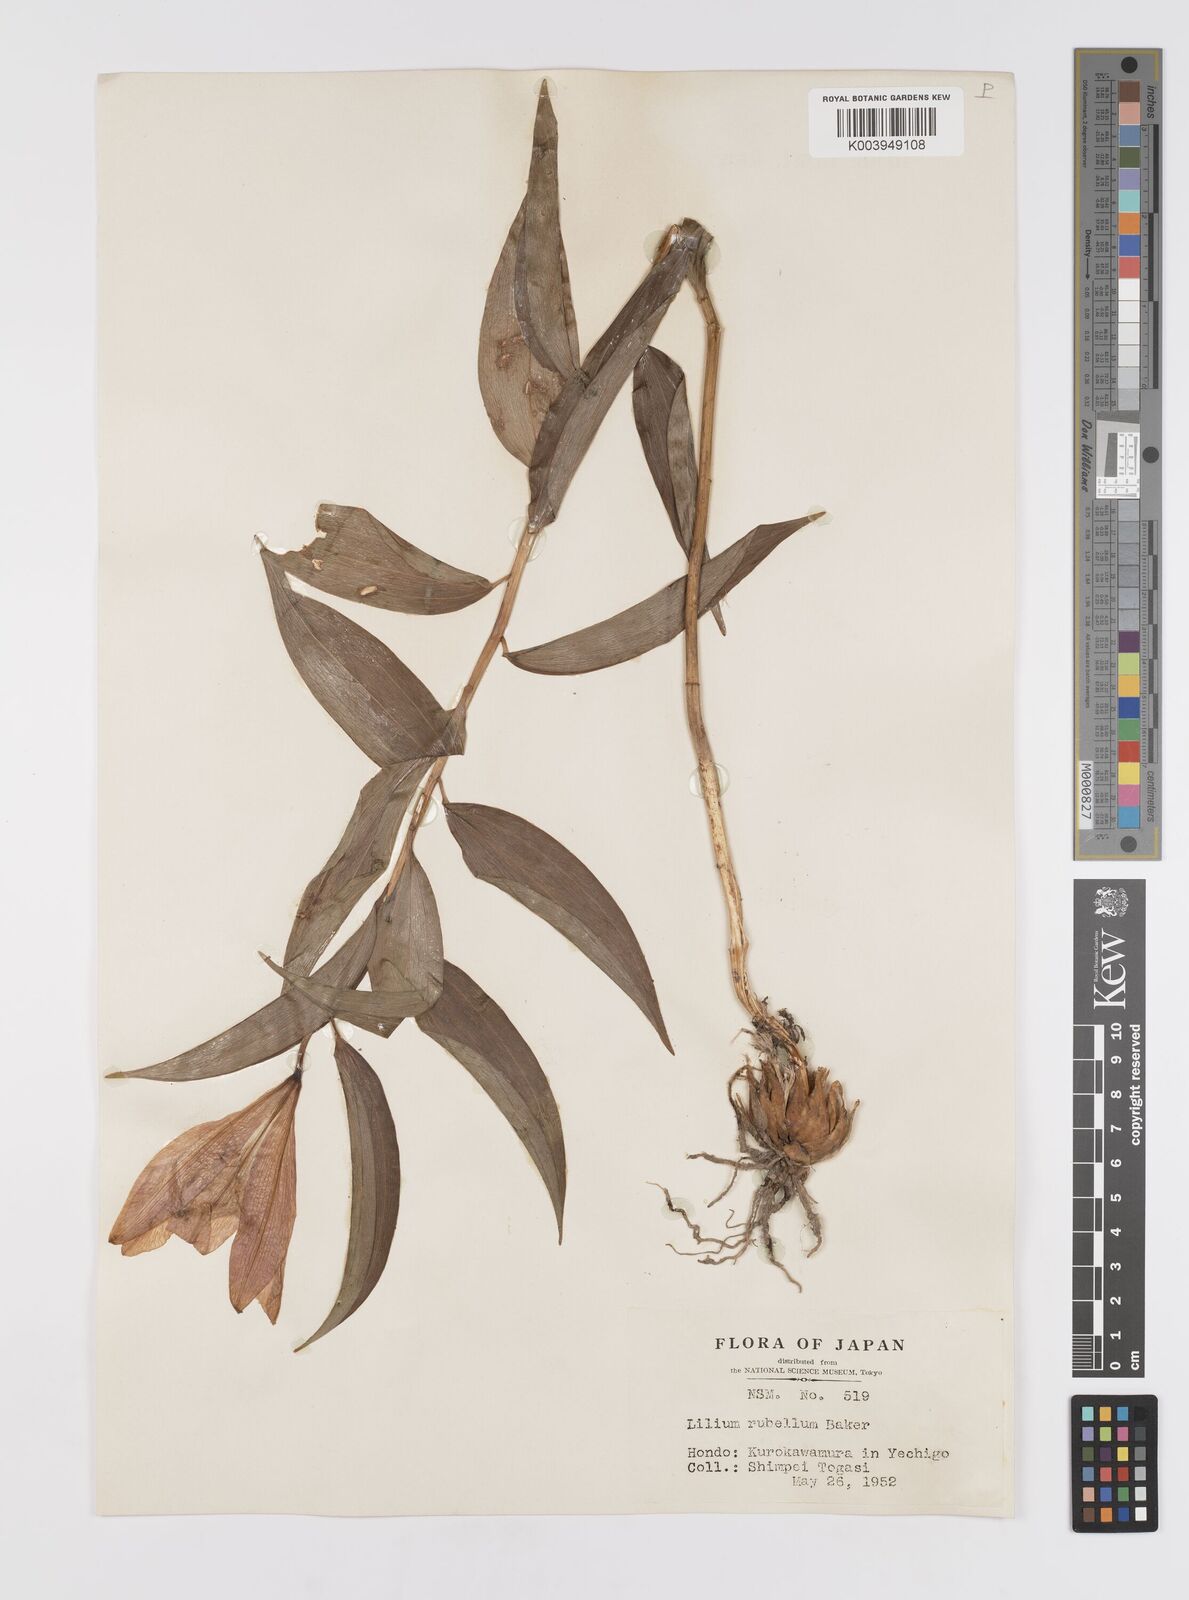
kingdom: Plantae
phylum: Tracheophyta
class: Liliopsida
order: Liliales
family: Liliaceae
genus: Lilium
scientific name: Lilium rubellum
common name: Rubellum lily
